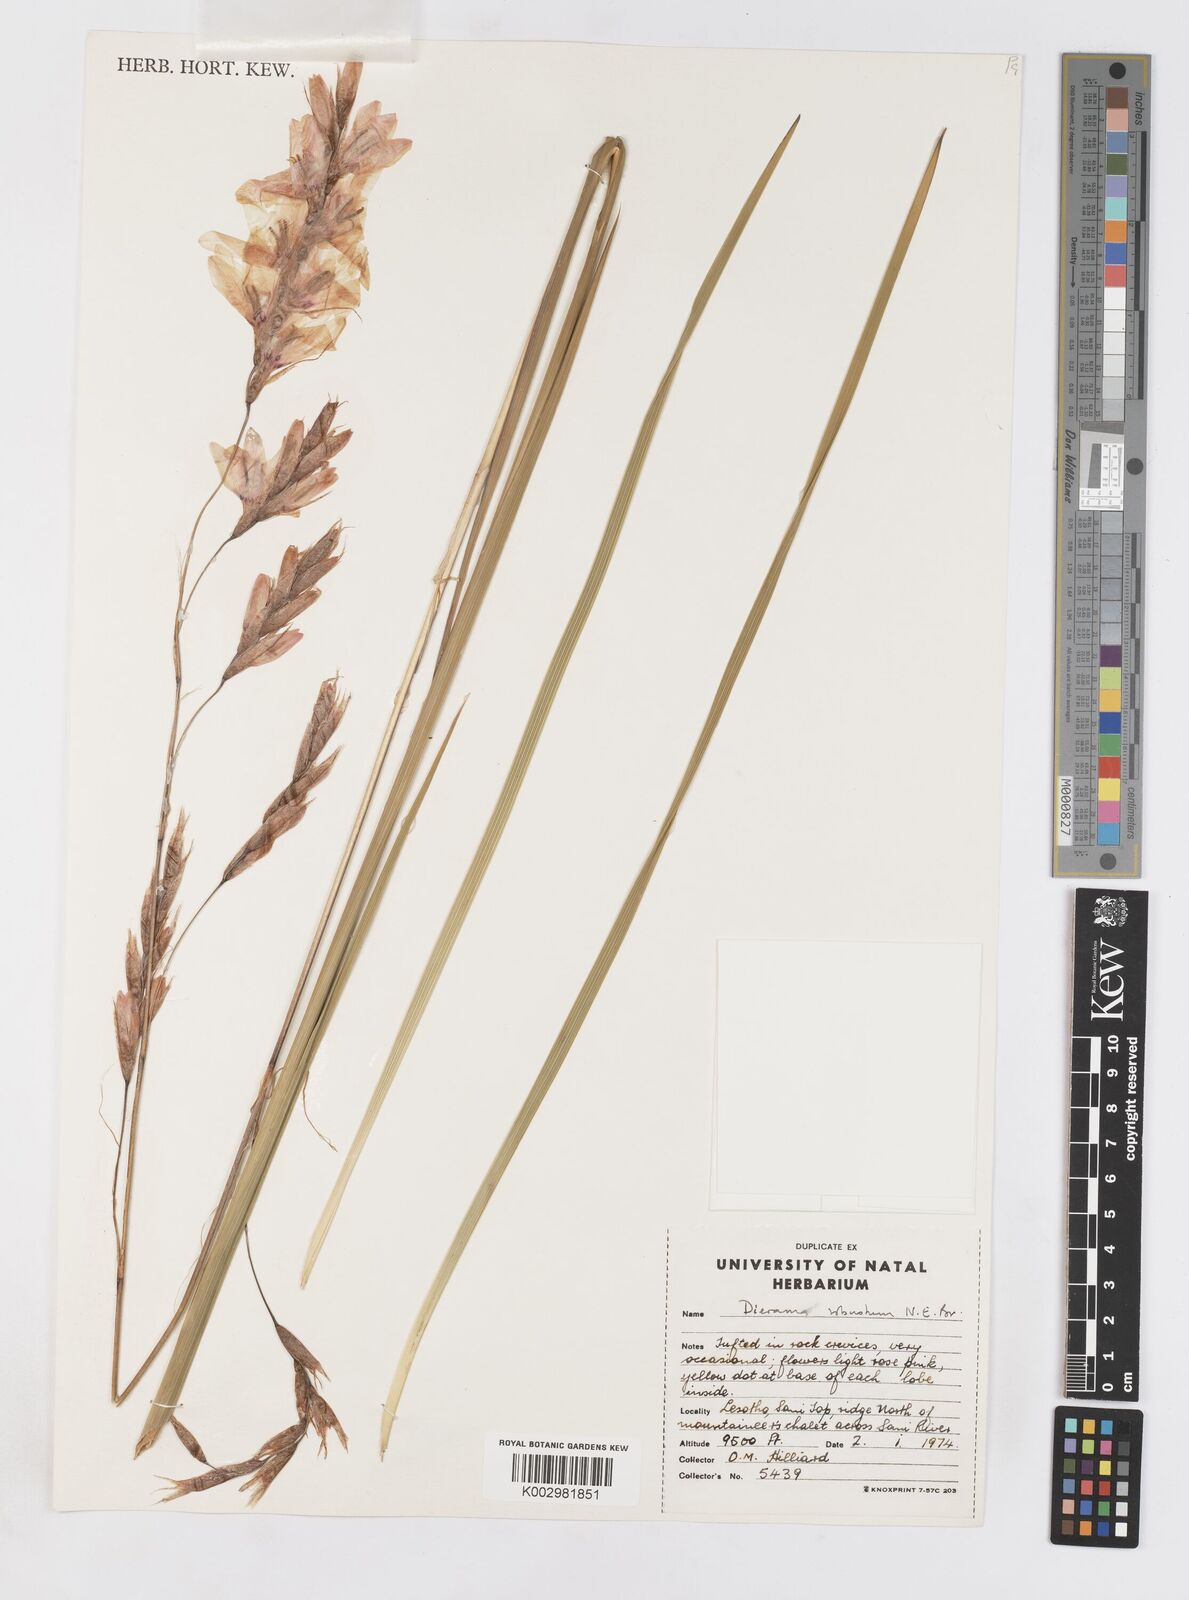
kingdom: Plantae
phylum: Tracheophyta
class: Liliopsida
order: Asparagales
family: Iridaceae
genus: Dierama
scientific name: Dierama robustum
